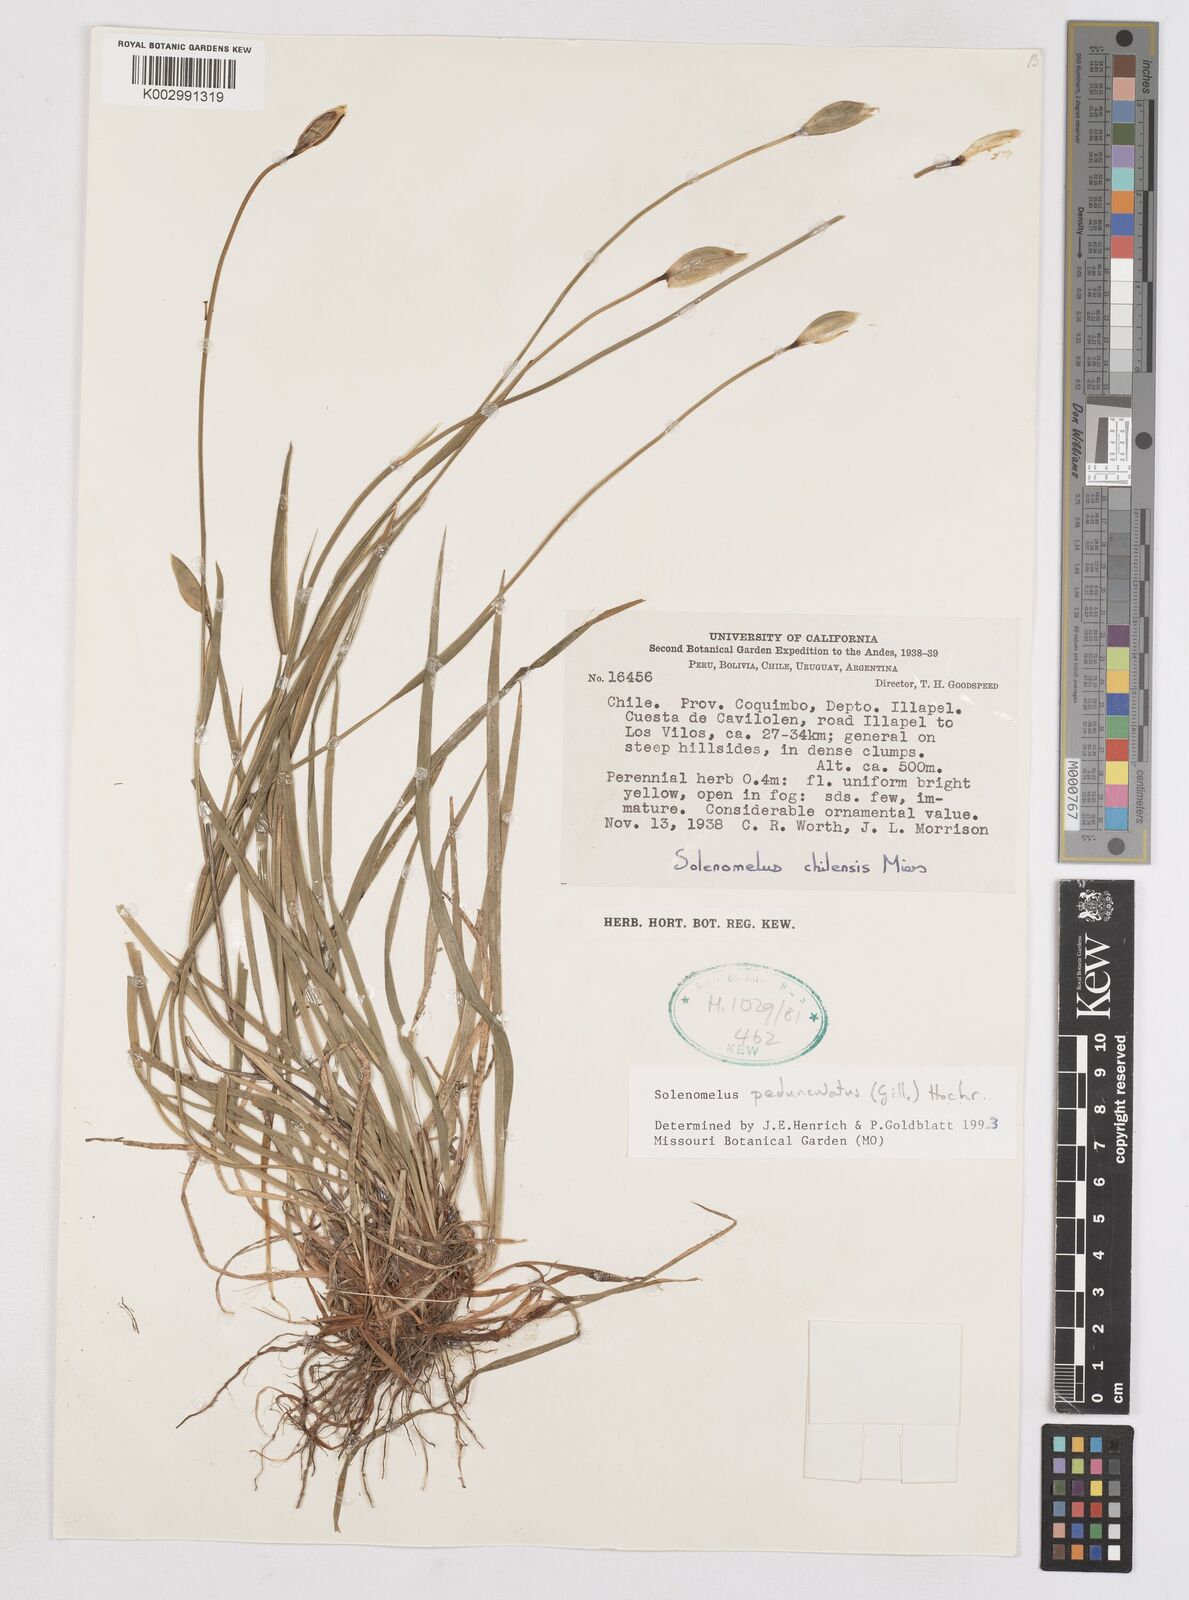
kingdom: Plantae
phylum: Tracheophyta
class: Liliopsida
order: Asparagales
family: Iridaceae
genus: Solenomelus
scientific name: Solenomelus pedunculatus
